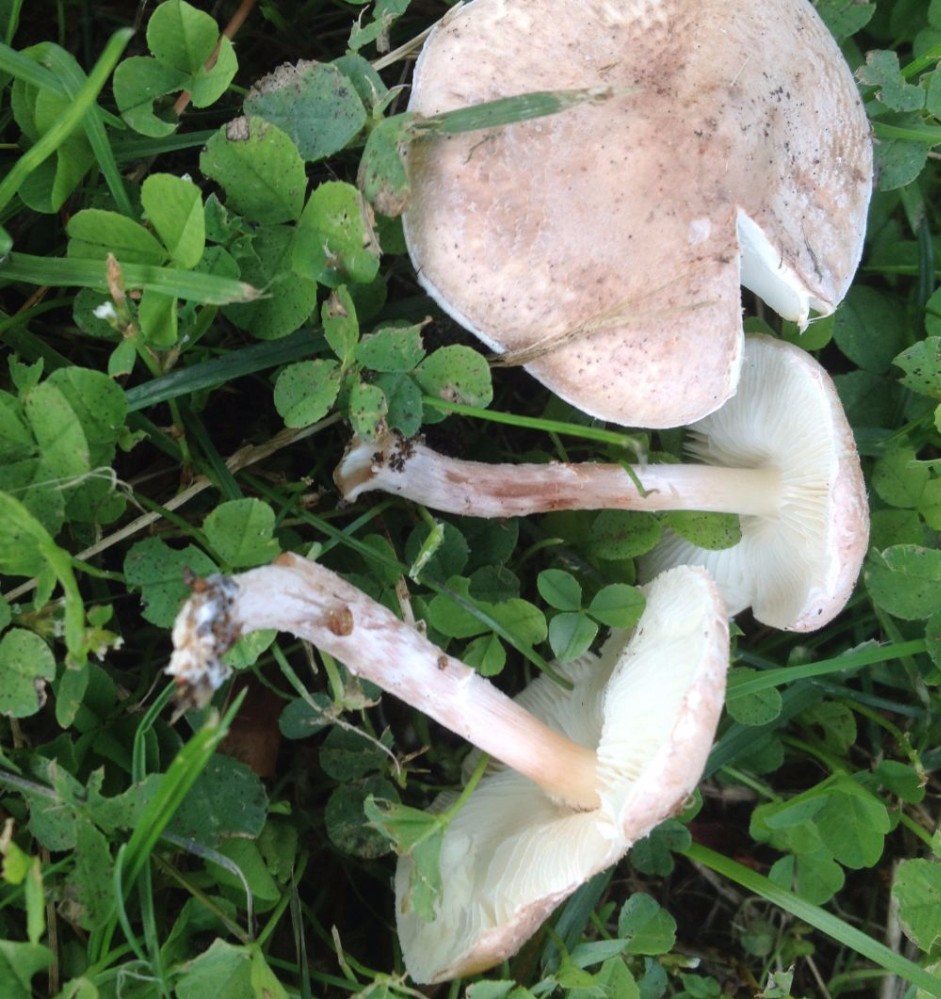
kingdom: Fungi
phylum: Basidiomycota
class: Agaricomycetes
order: Agaricales
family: Agaricaceae
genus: Lepiota
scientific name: Lepiota subincarnata
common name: kødfarvet parasolhat
